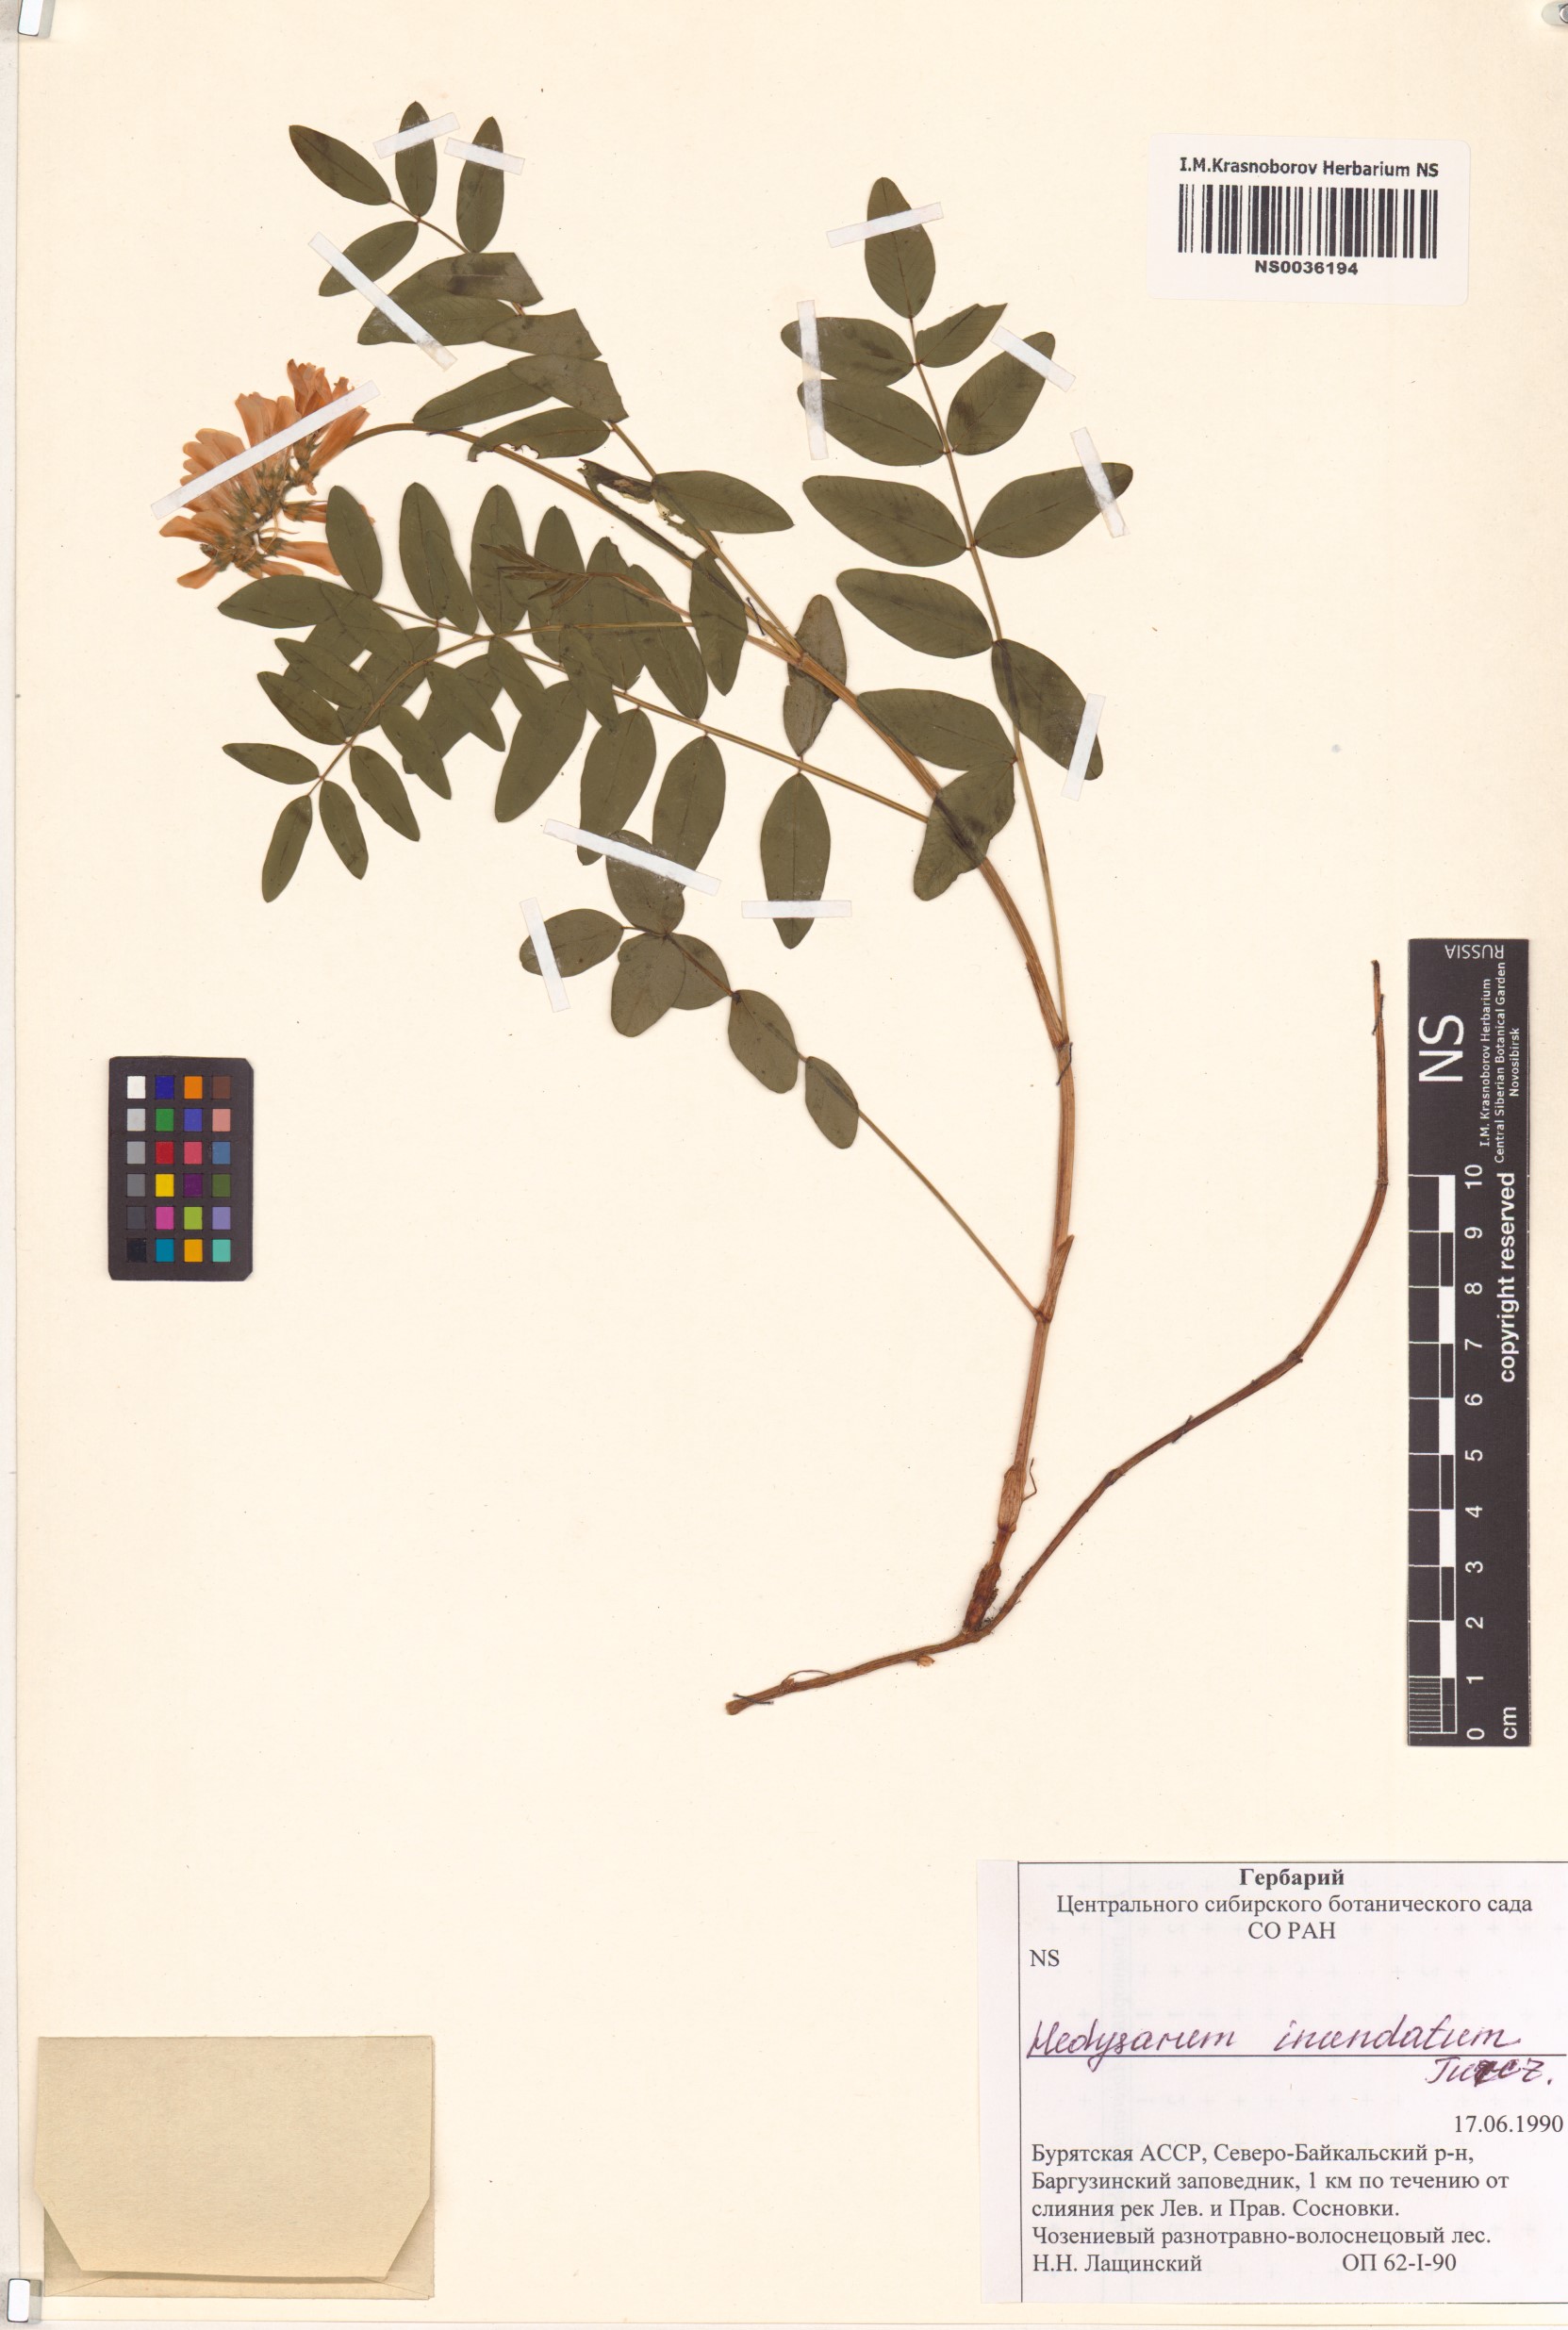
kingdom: Plantae
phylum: Tracheophyta
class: Magnoliopsida
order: Fabales
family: Fabaceae
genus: Hedysarum
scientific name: Hedysarum inundatum
